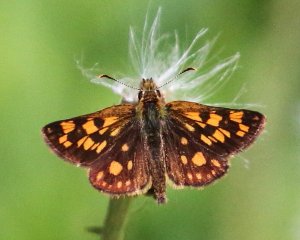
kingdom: Animalia
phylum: Arthropoda
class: Insecta
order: Lepidoptera
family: Hesperiidae
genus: Carterocephalus
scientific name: Carterocephalus palaemon
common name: Chequered Skipper
